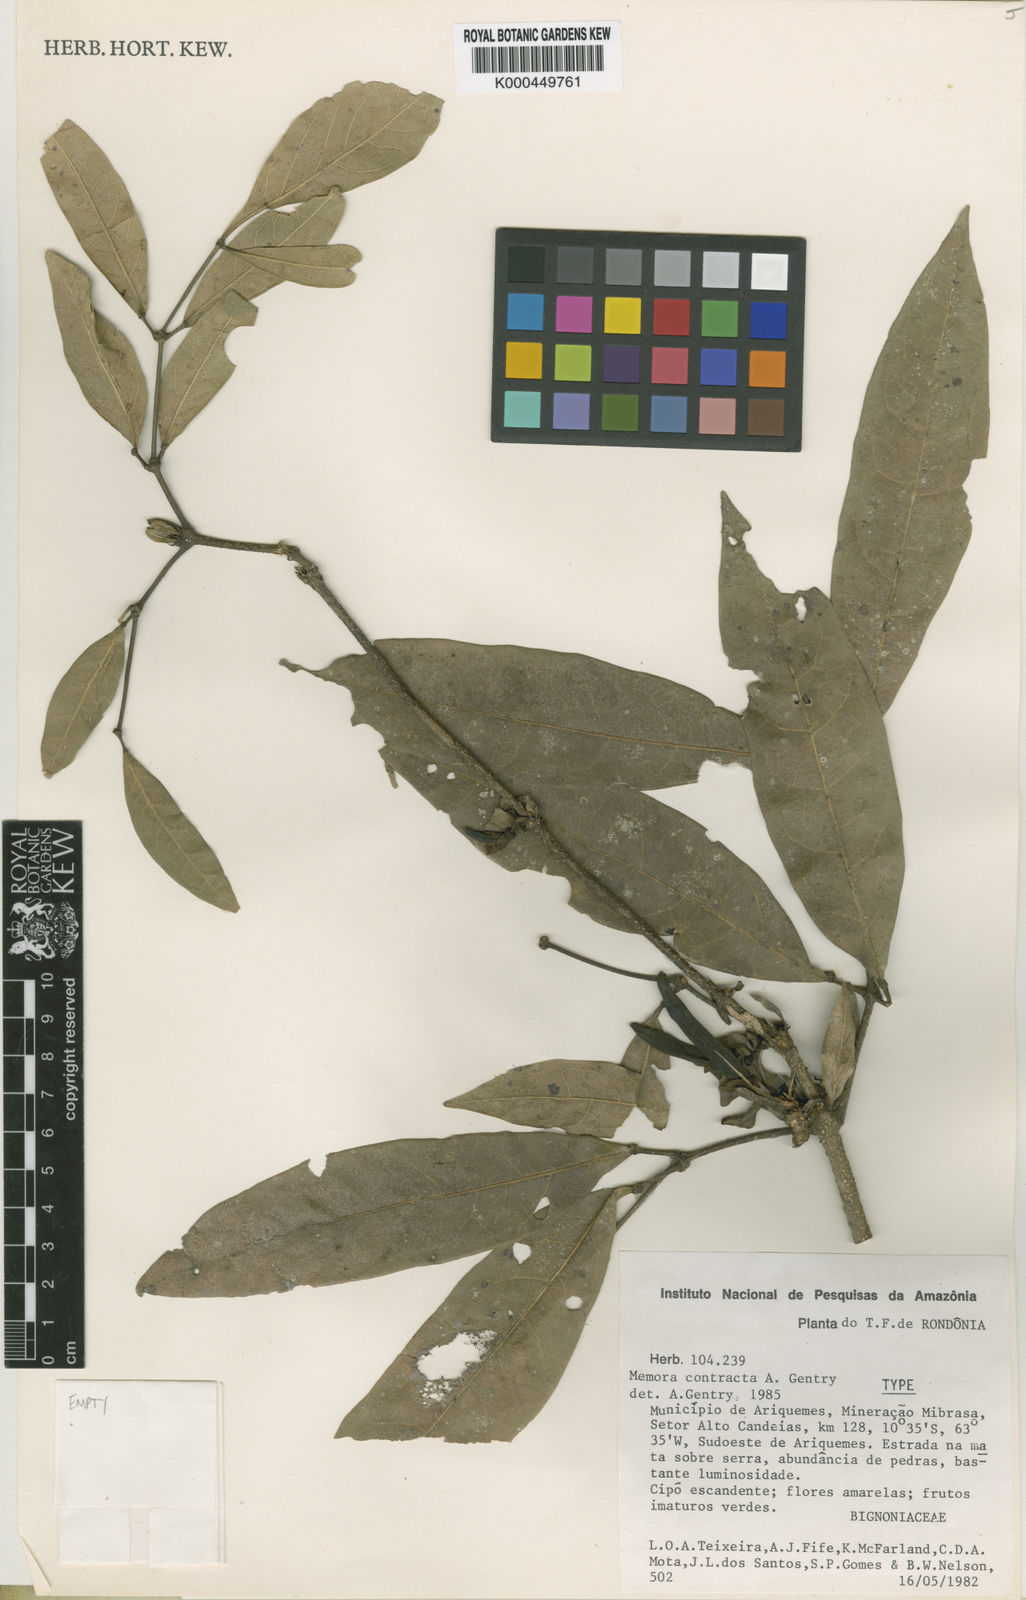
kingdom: Plantae
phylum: Tracheophyta
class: Magnoliopsida
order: Lamiales
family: Bignoniaceae
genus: Adenocalymma
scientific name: Adenocalymma contractum
